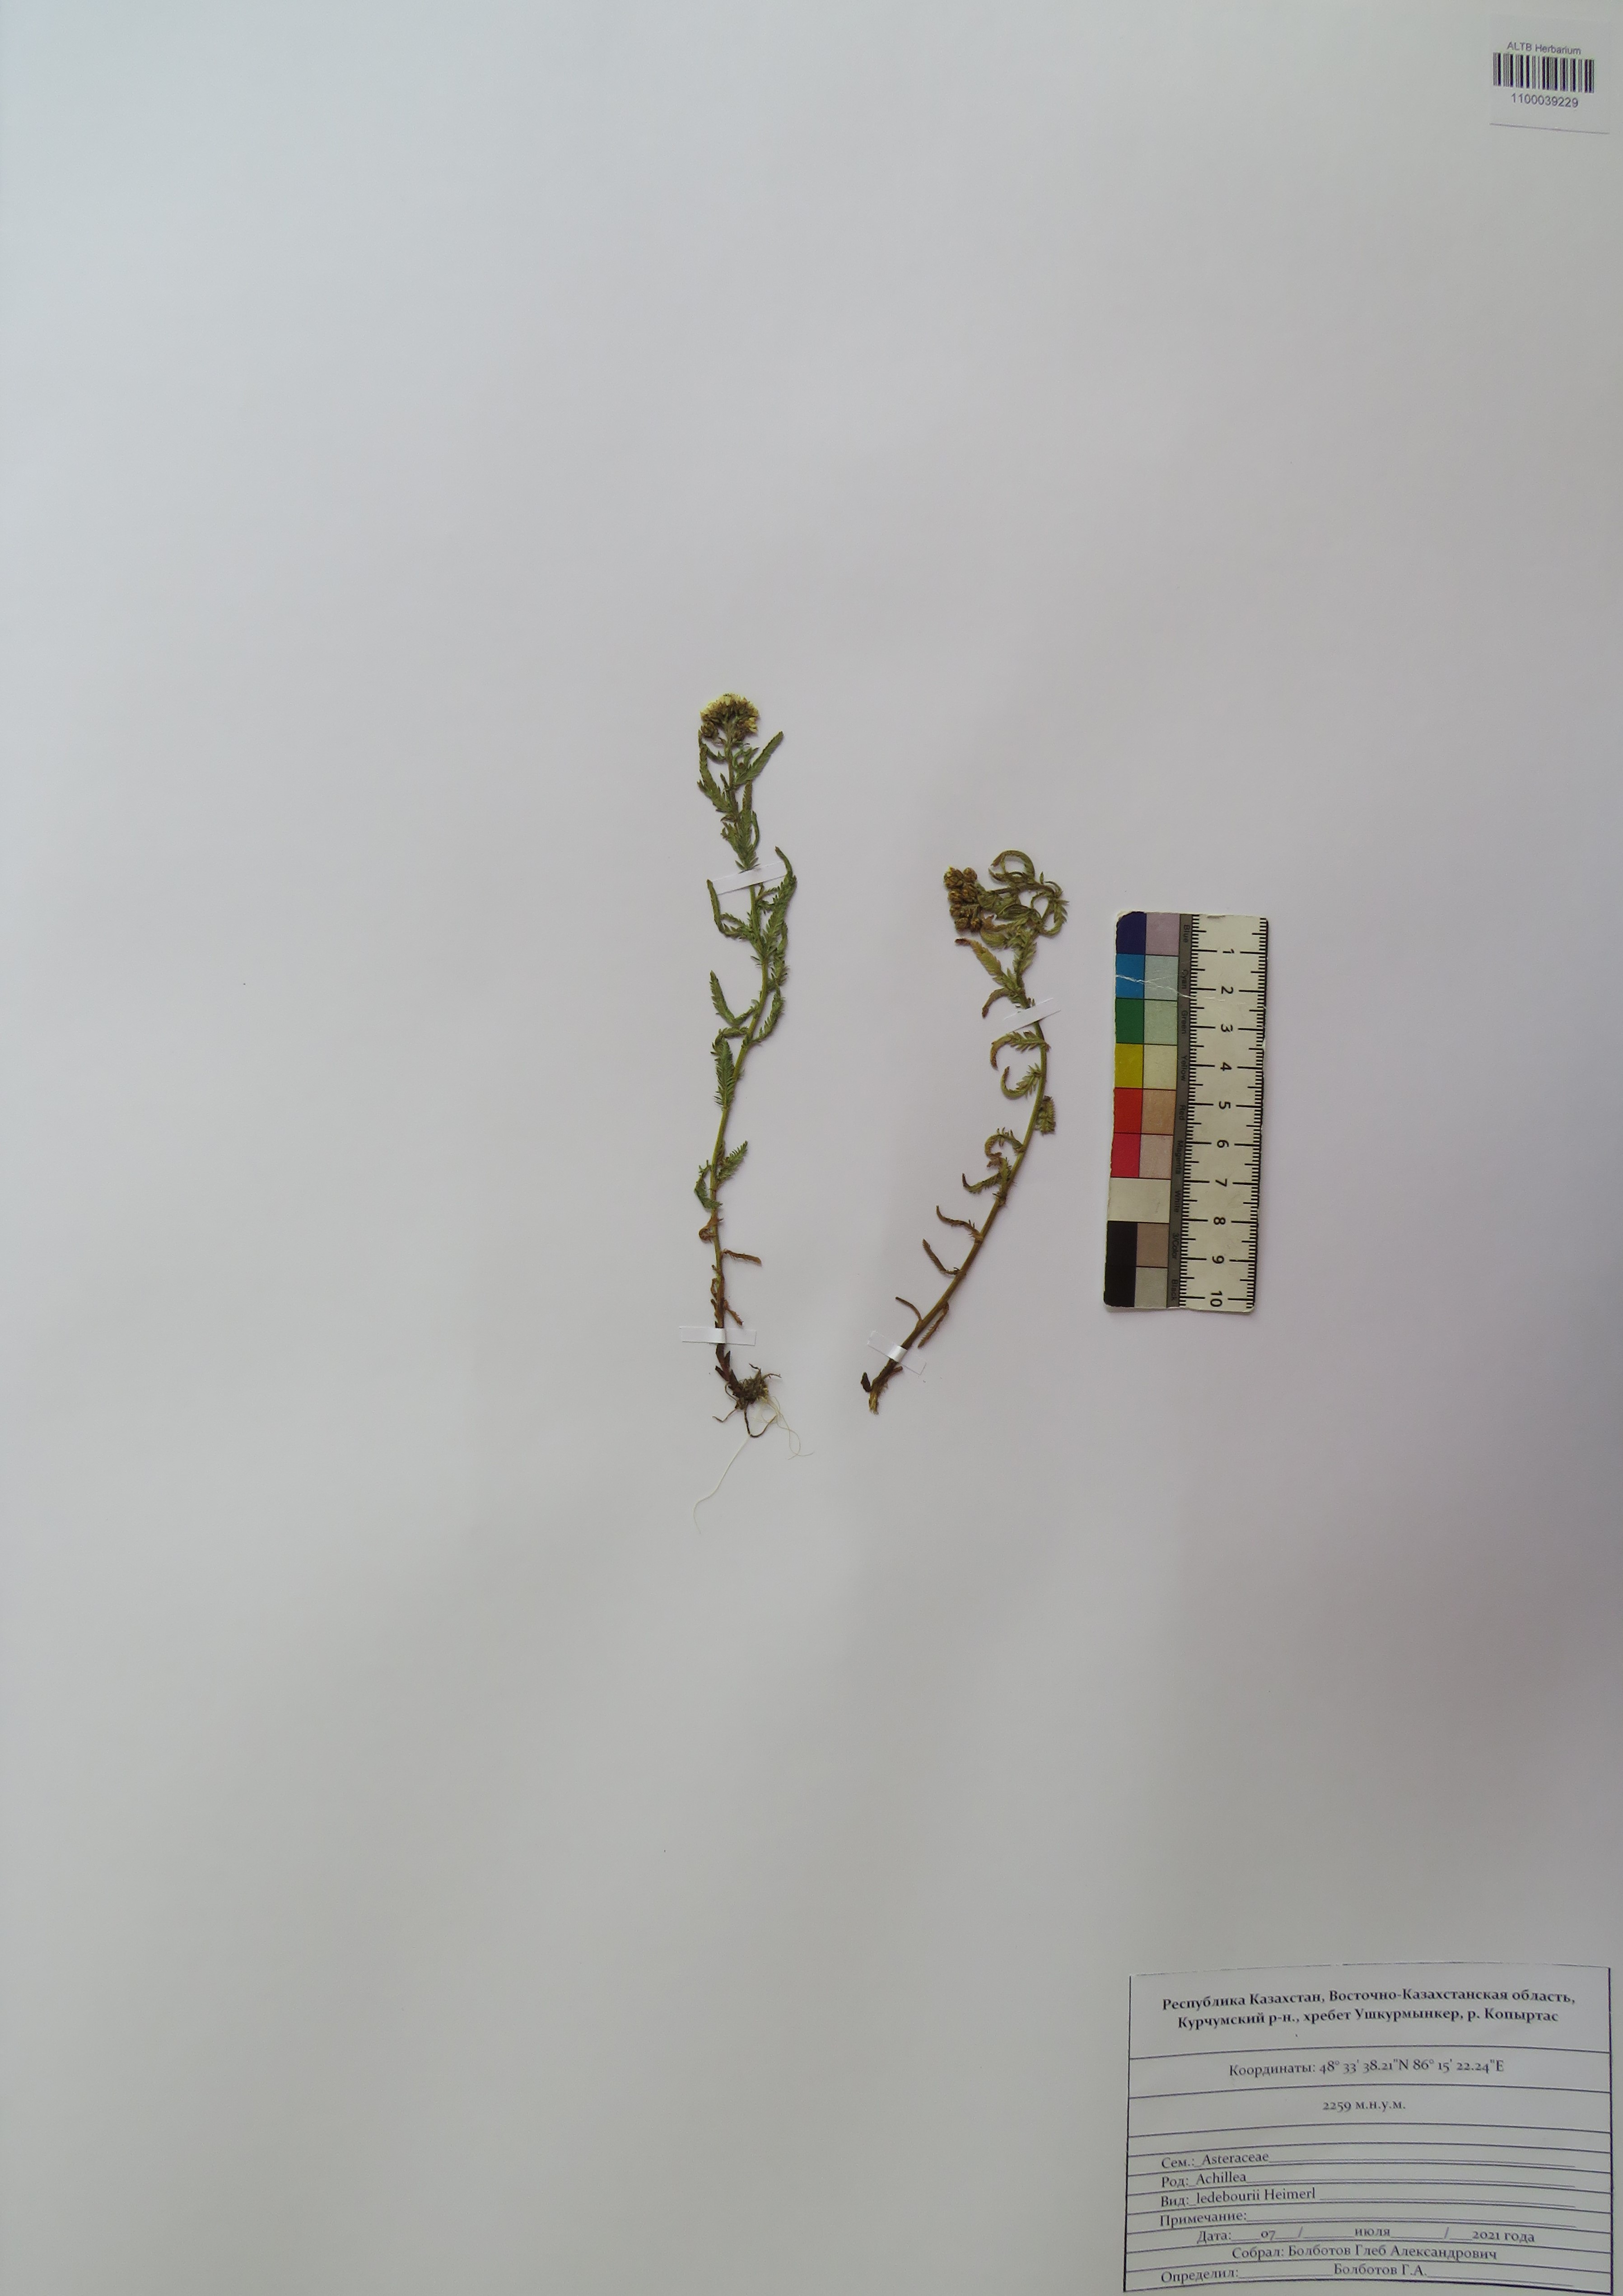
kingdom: Plantae
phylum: Tracheophyta
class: Magnoliopsida
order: Asterales
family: Asteraceae
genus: Achillea
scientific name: Achillea ledebourii
